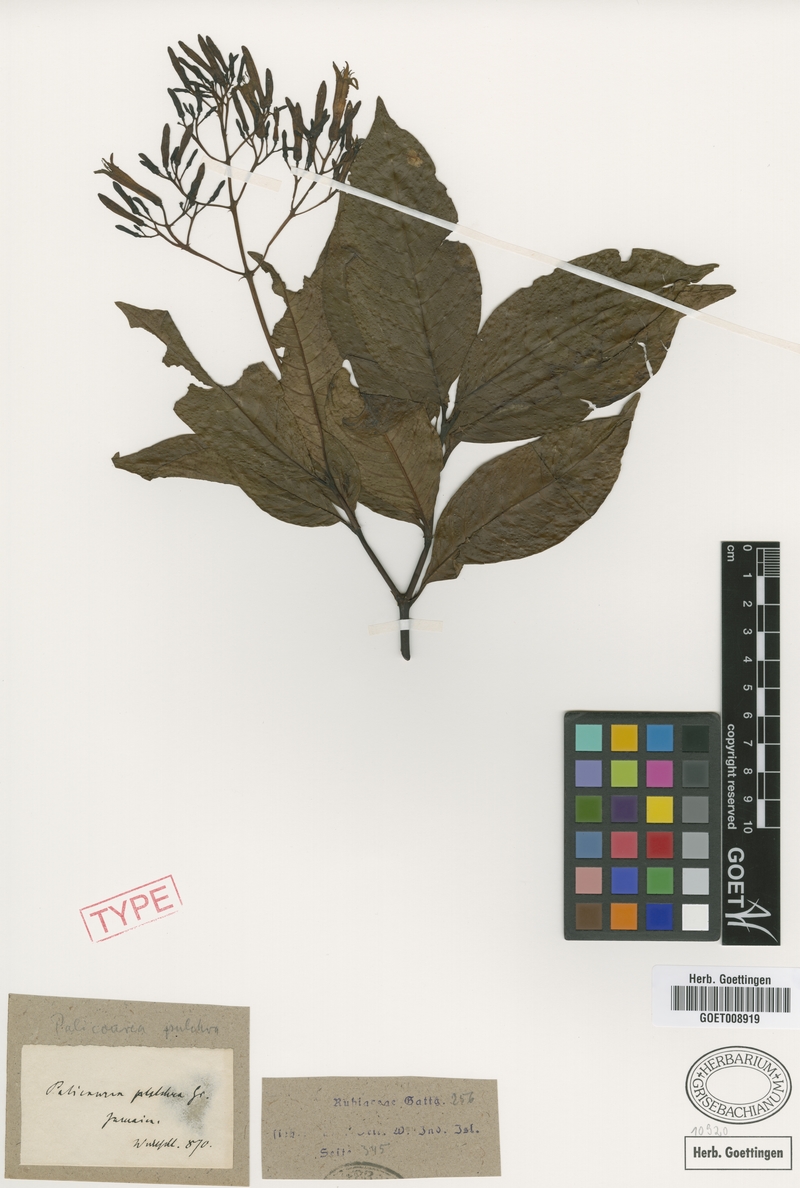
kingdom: Plantae
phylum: Tracheophyta
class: Magnoliopsida
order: Gentianales
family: Rubiaceae
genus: Palicourea
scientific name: Palicourea pulchra
